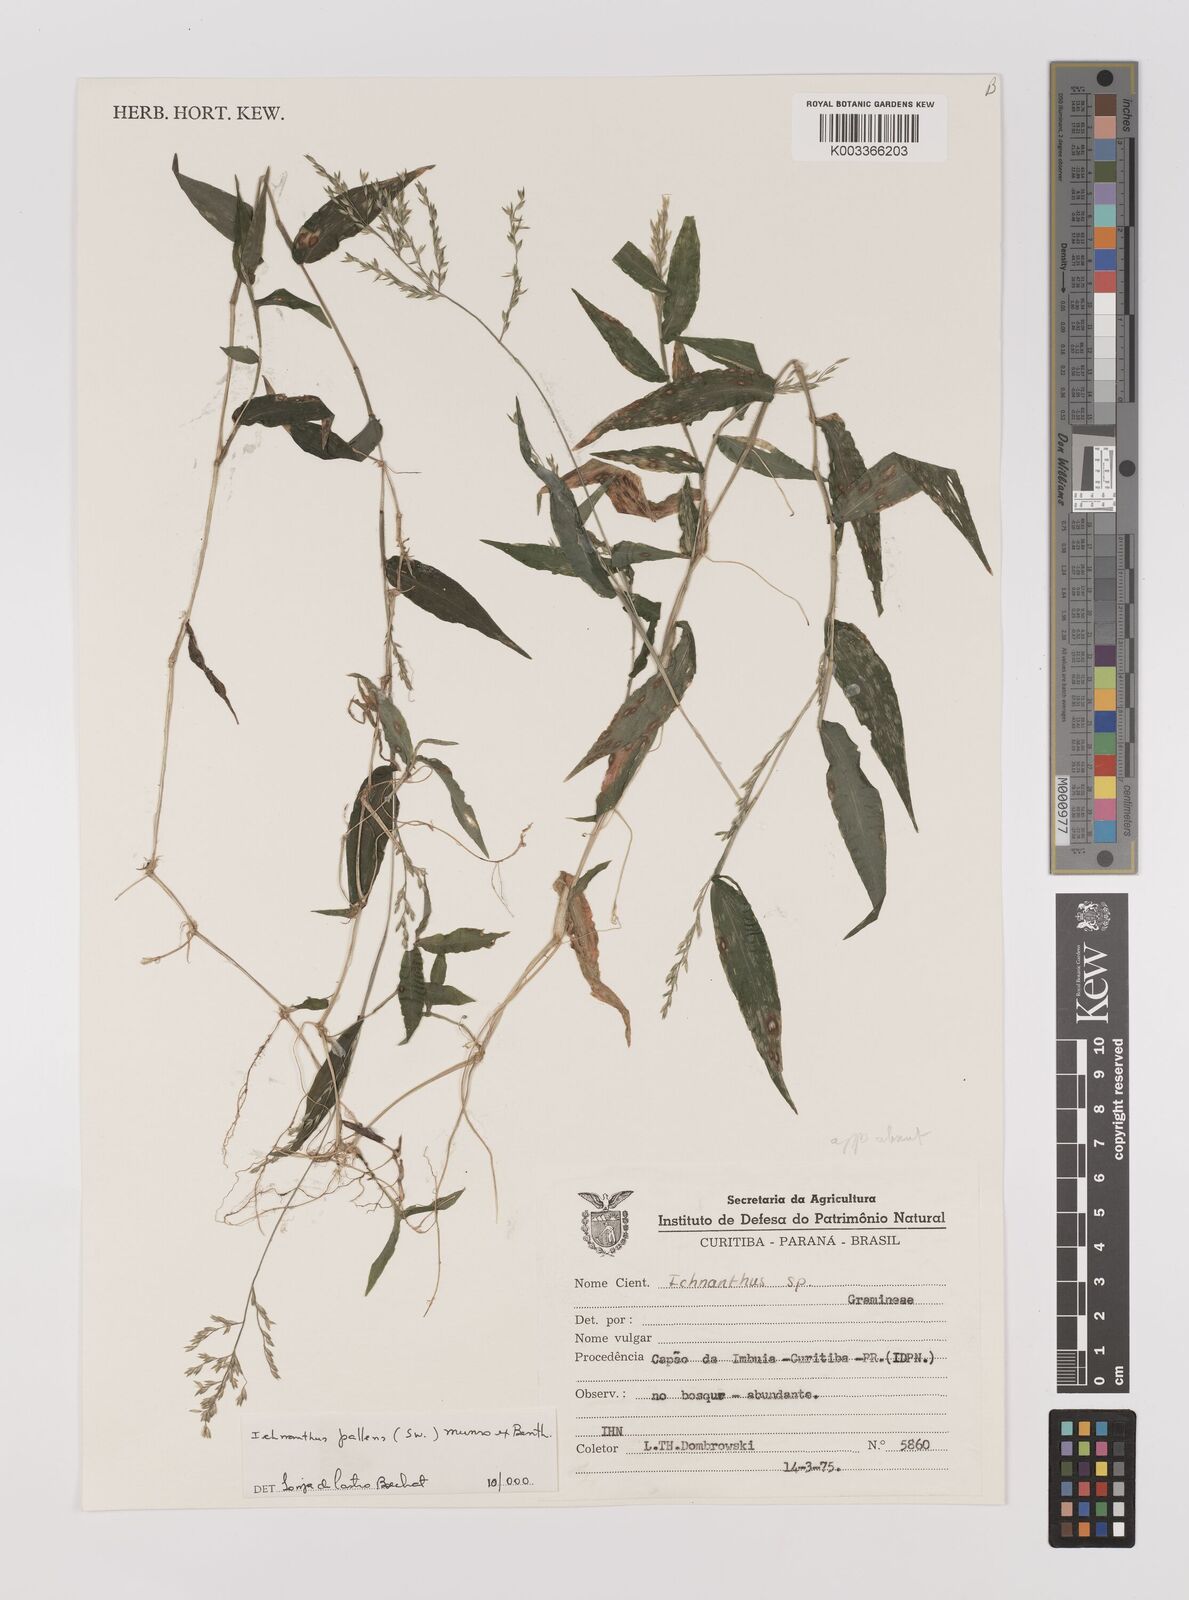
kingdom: Plantae
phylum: Tracheophyta
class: Liliopsida
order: Poales
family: Poaceae
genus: Ichnanthus
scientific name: Ichnanthus pallens
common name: Water grass
